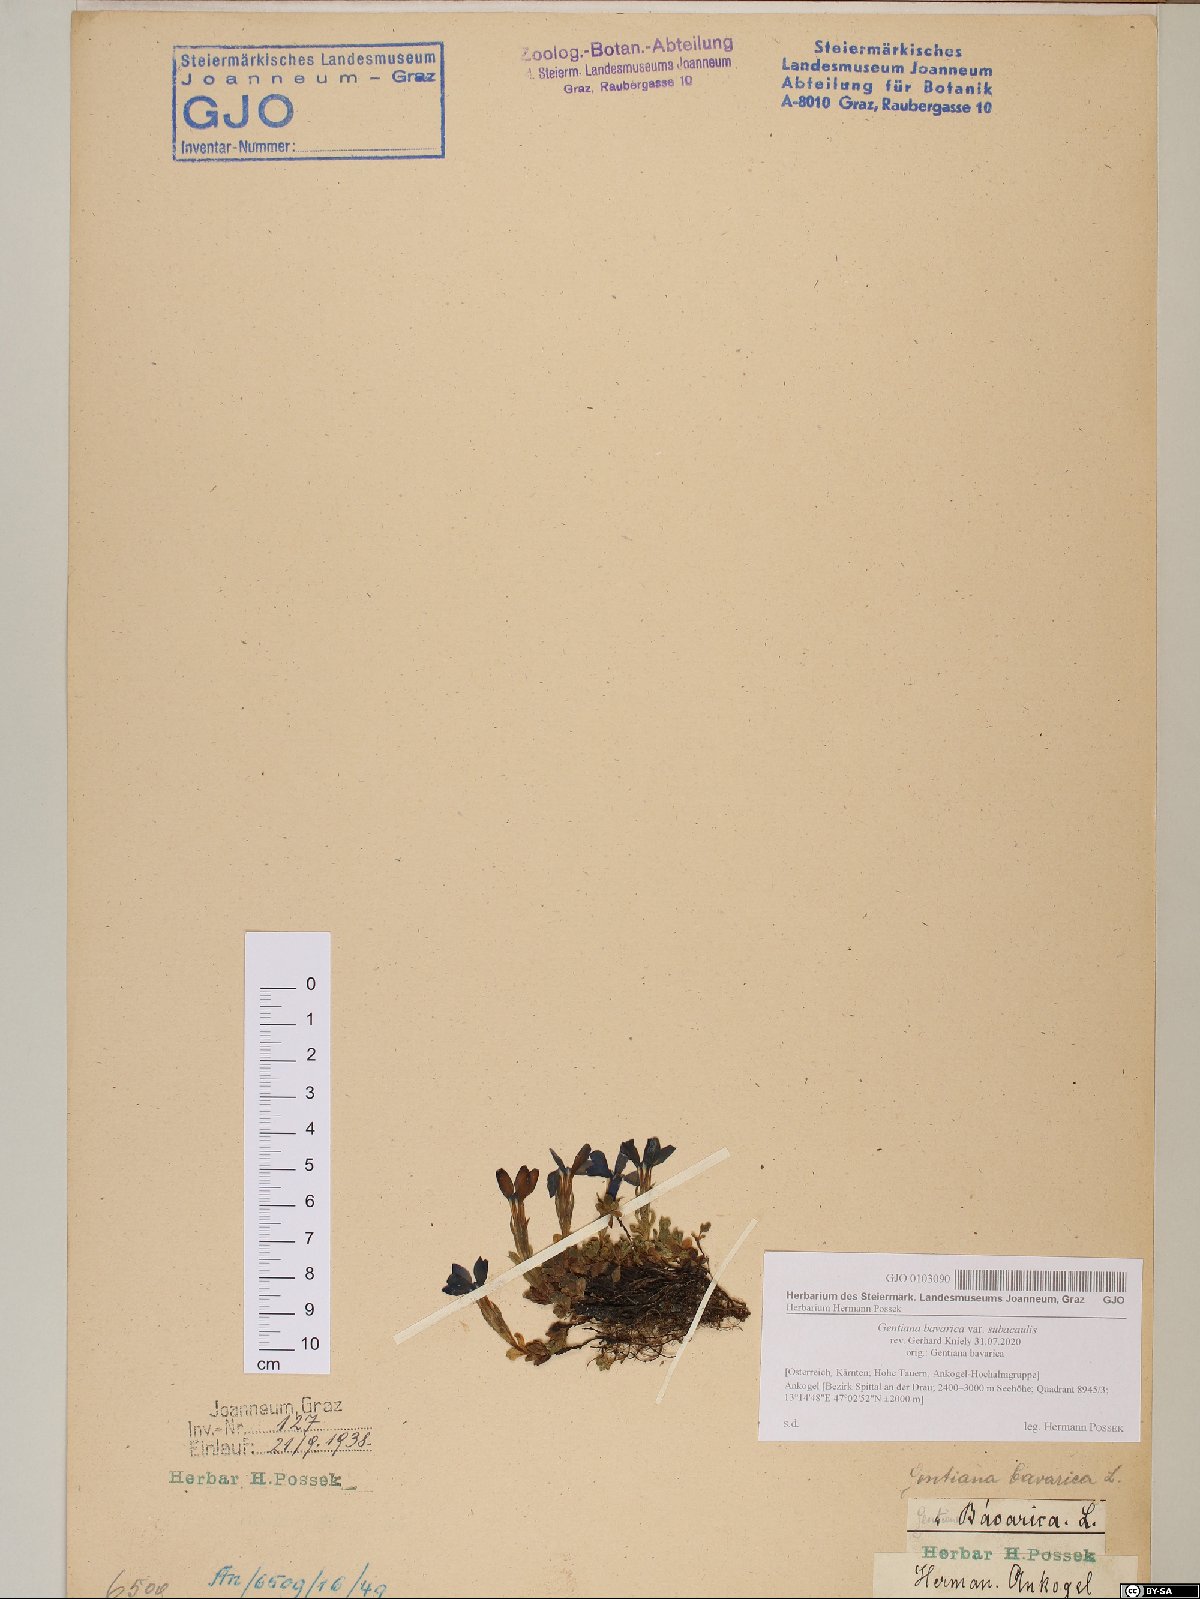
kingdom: Plantae
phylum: Tracheophyta
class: Magnoliopsida
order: Gentianales
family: Gentianaceae
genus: Gentiana
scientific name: Gentiana bavarica
